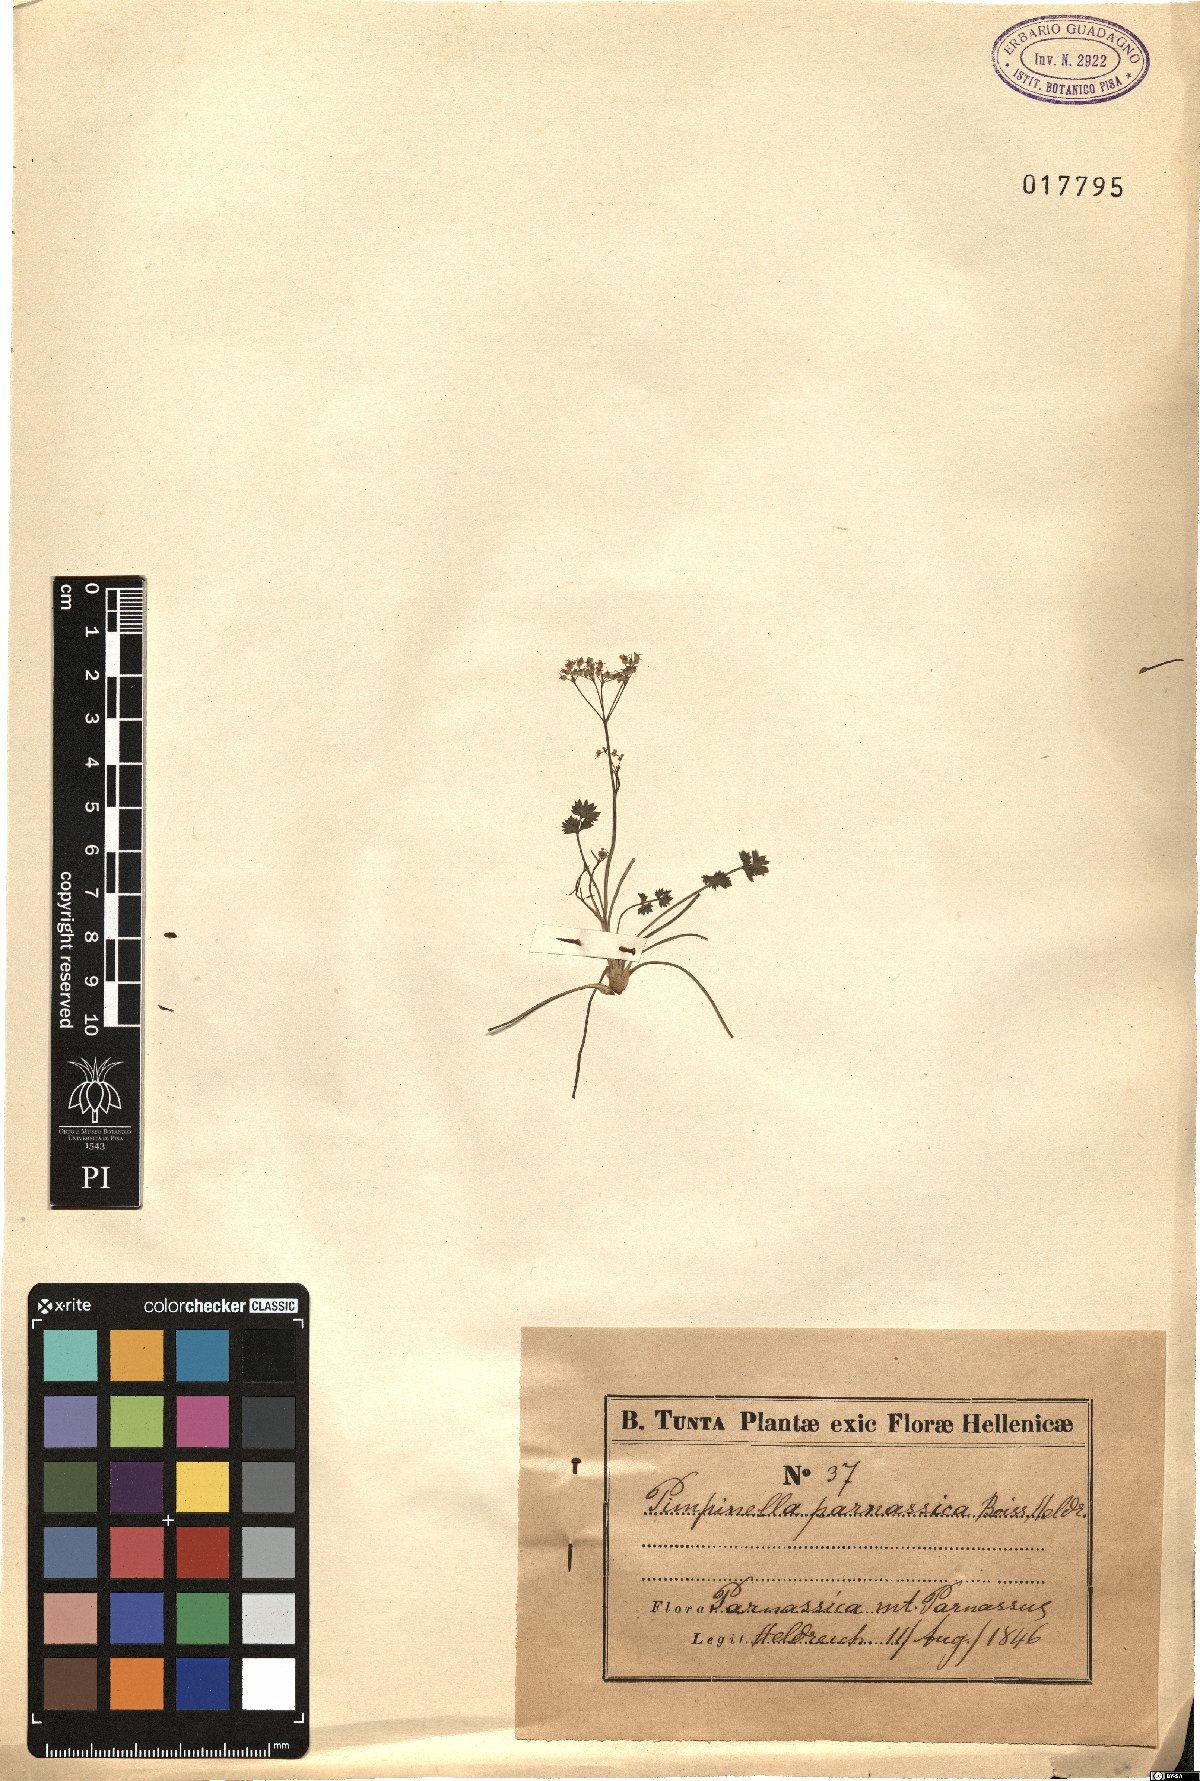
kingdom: Plantae
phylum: Tracheophyta
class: Magnoliopsida
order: Apiales
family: Apiaceae
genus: Pimpinella
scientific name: Pimpinella tragium
